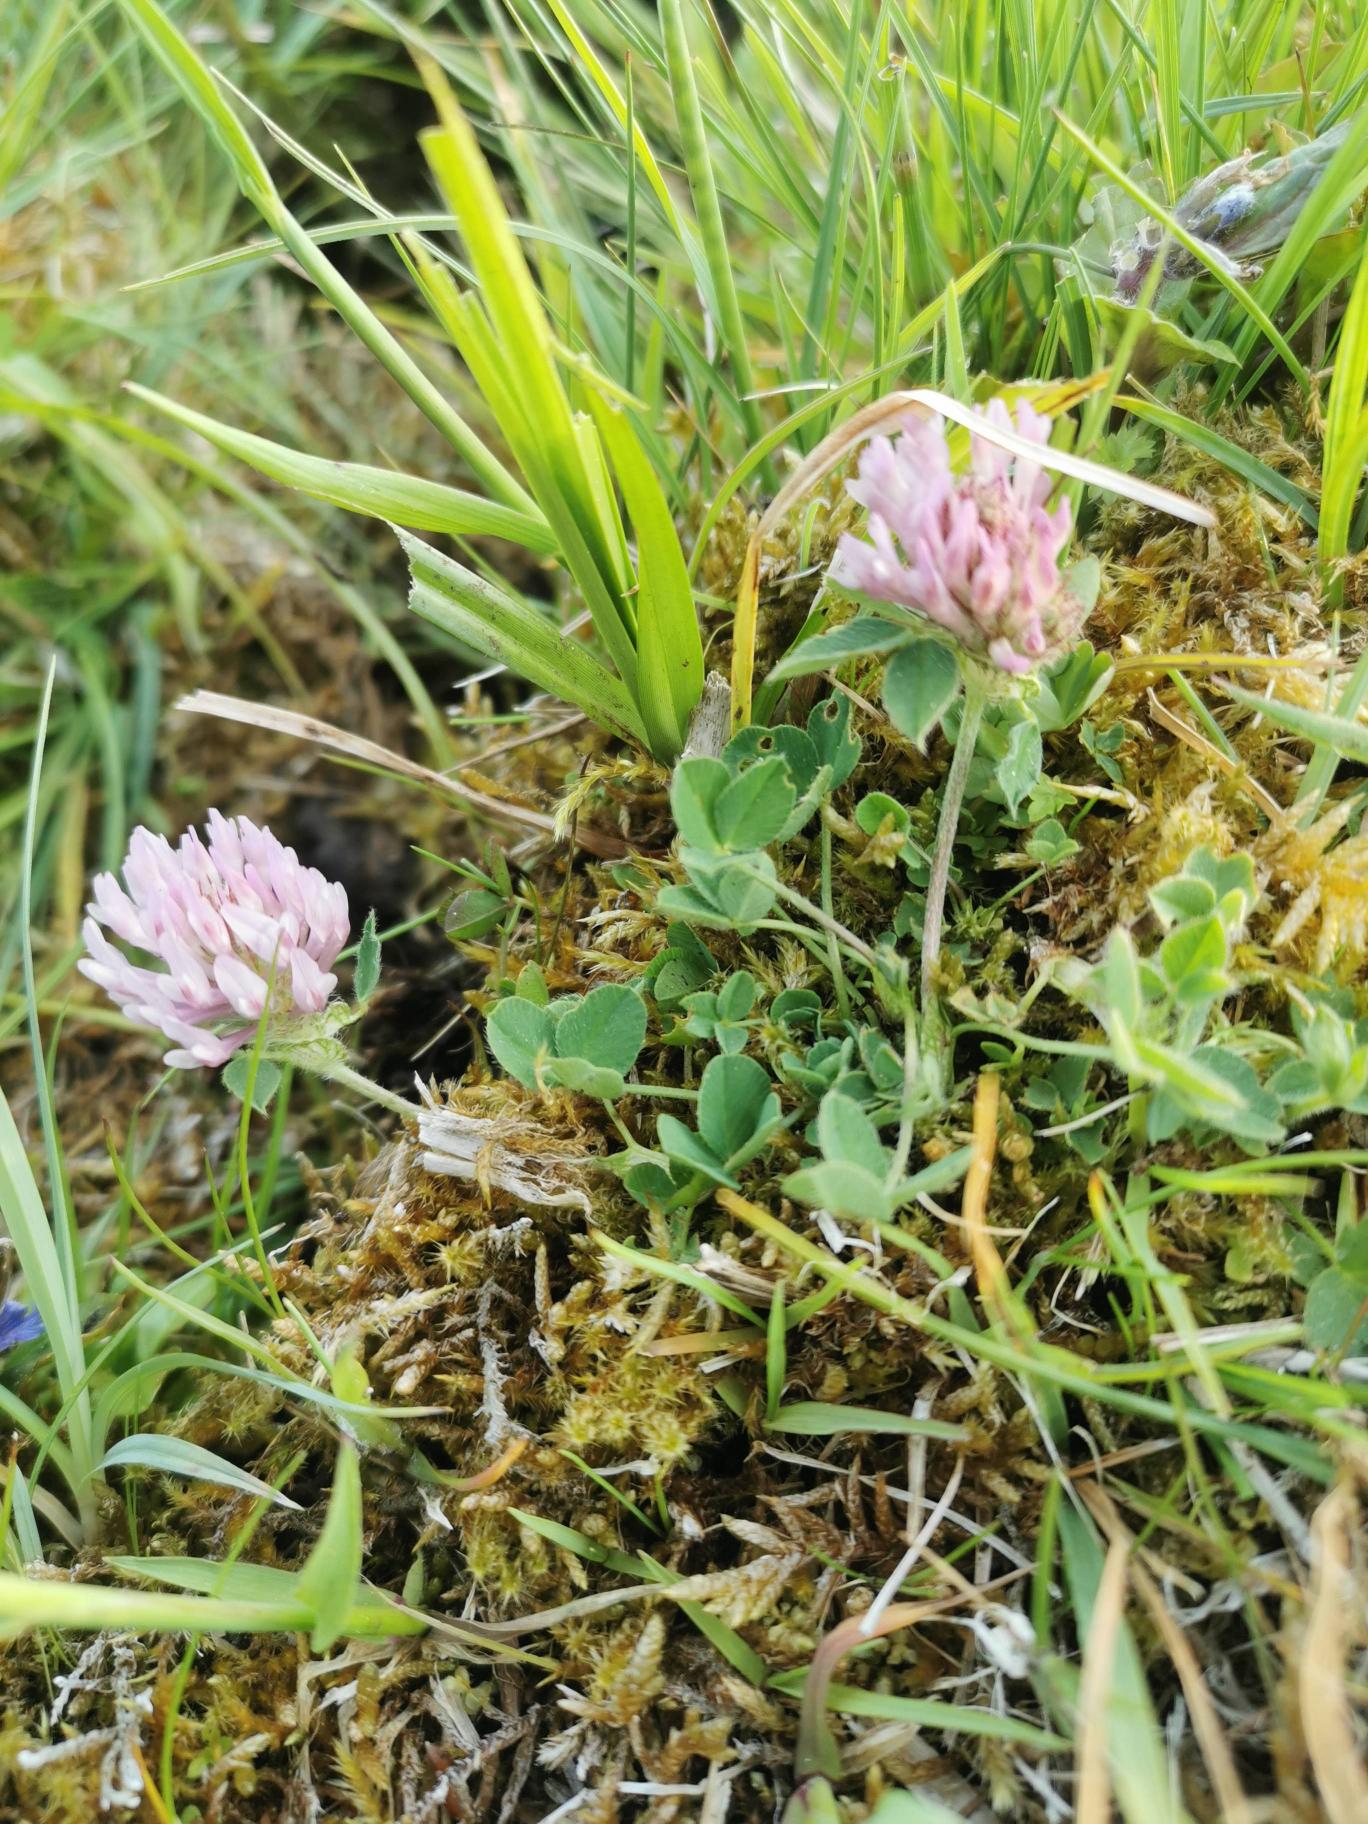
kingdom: Plantae
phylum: Tracheophyta
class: Magnoliopsida
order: Fabales
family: Fabaceae
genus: Trifolium
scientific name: Trifolium pratense
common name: Rød-kløver
